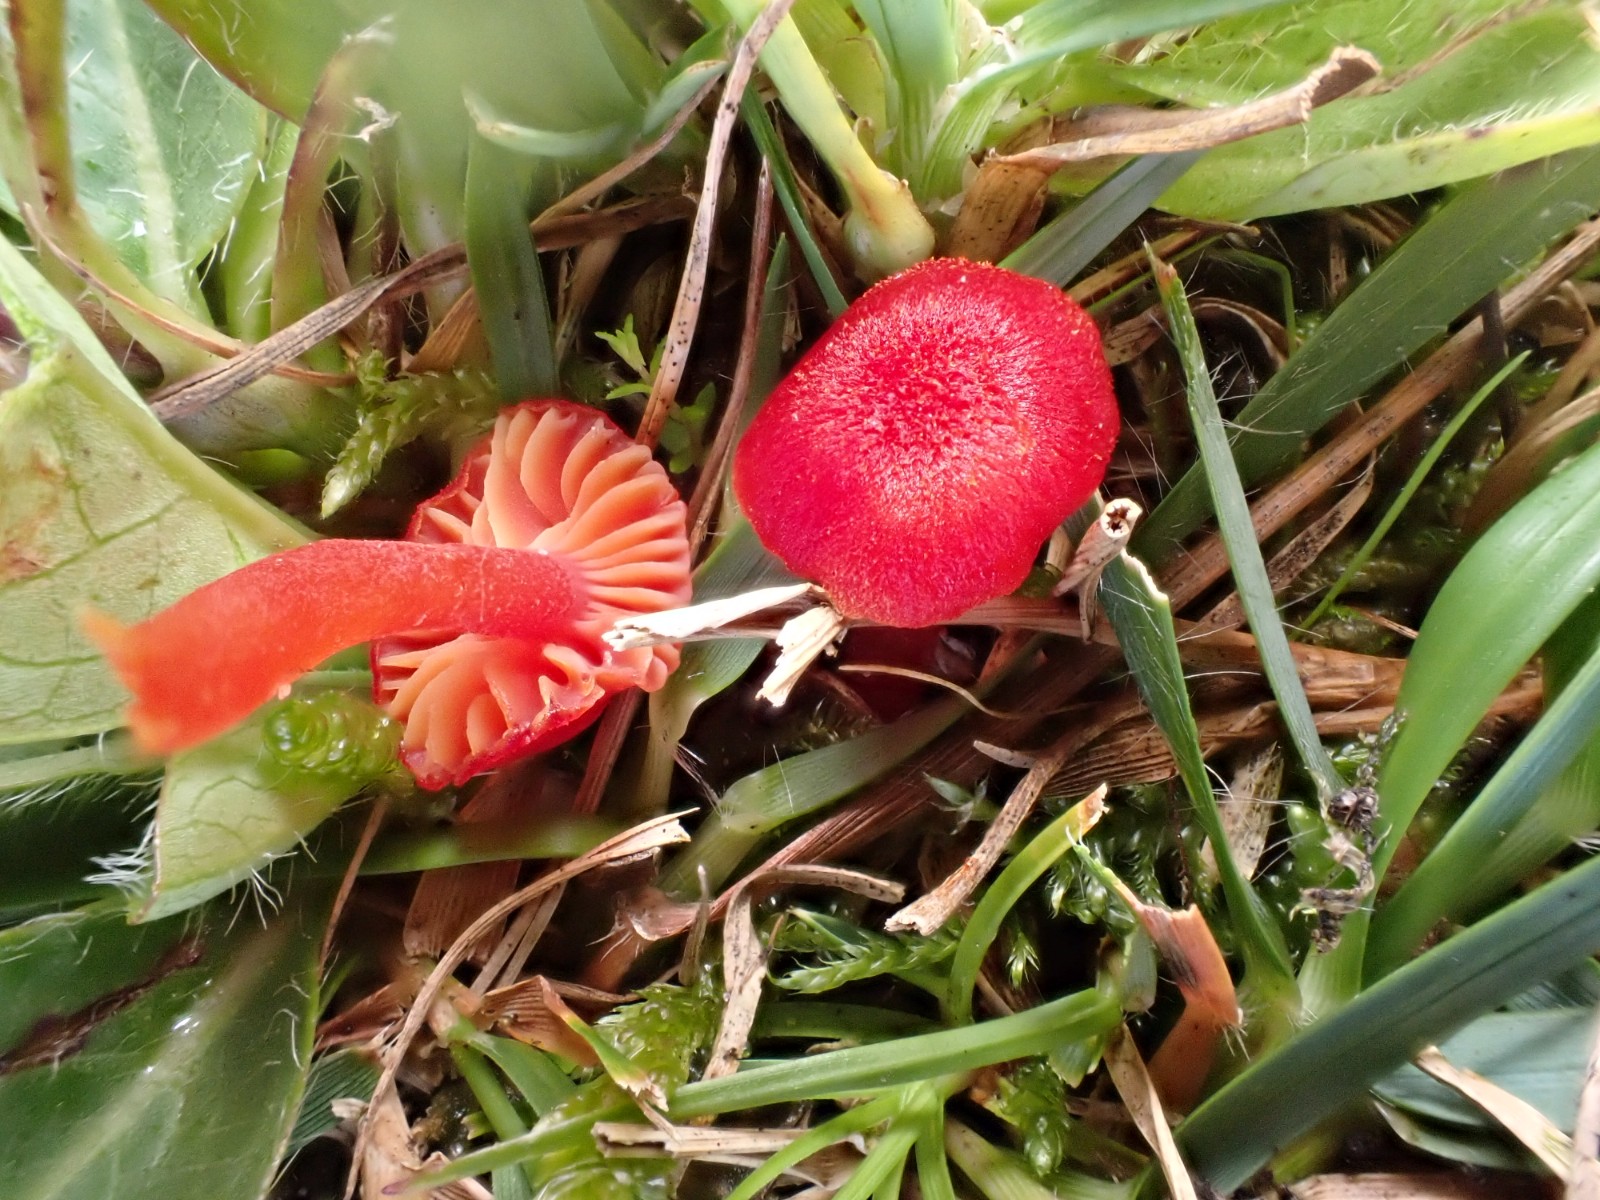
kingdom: Fungi
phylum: Basidiomycota
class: Agaricomycetes
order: Agaricales
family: Hygrophoraceae
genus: Hygrocybe
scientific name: Hygrocybe helobia
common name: hvidløgs-vokshat
